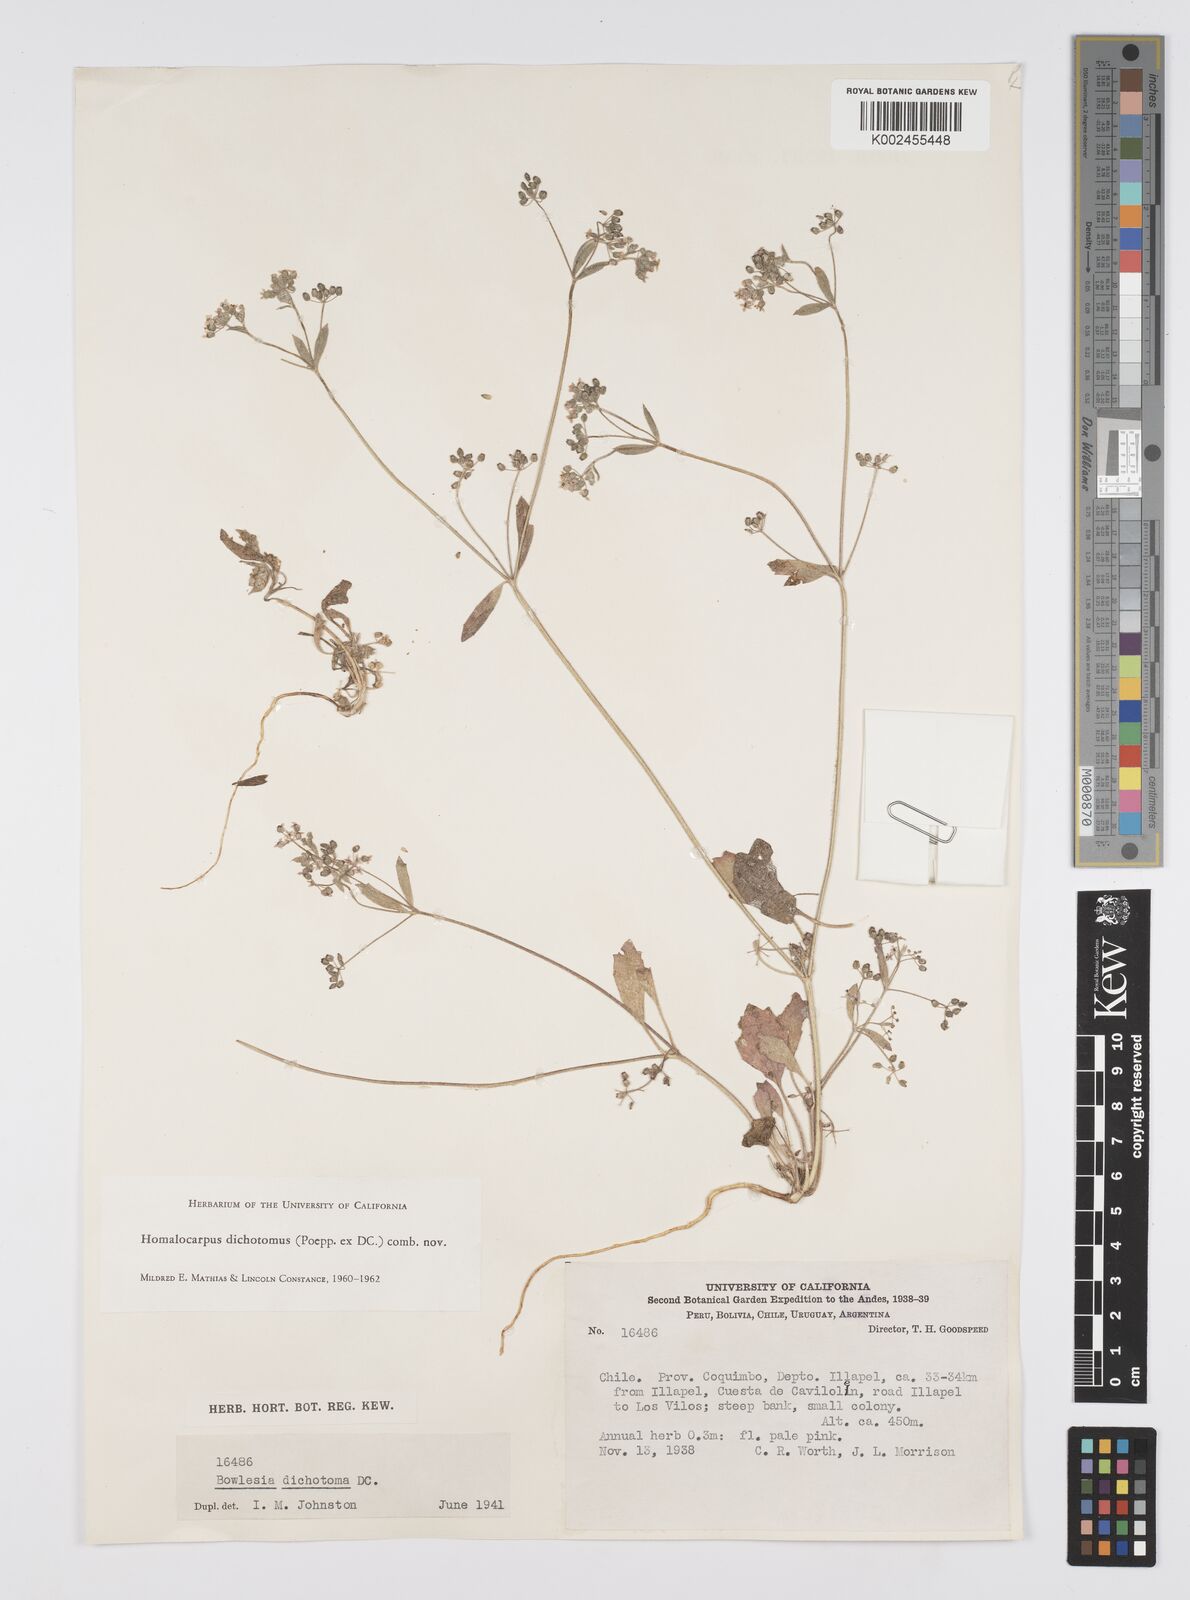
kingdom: Plantae
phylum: Tracheophyta
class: Magnoliopsida
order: Apiales
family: Apiaceae
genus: Homalocarpus
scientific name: Homalocarpus dichotomus
